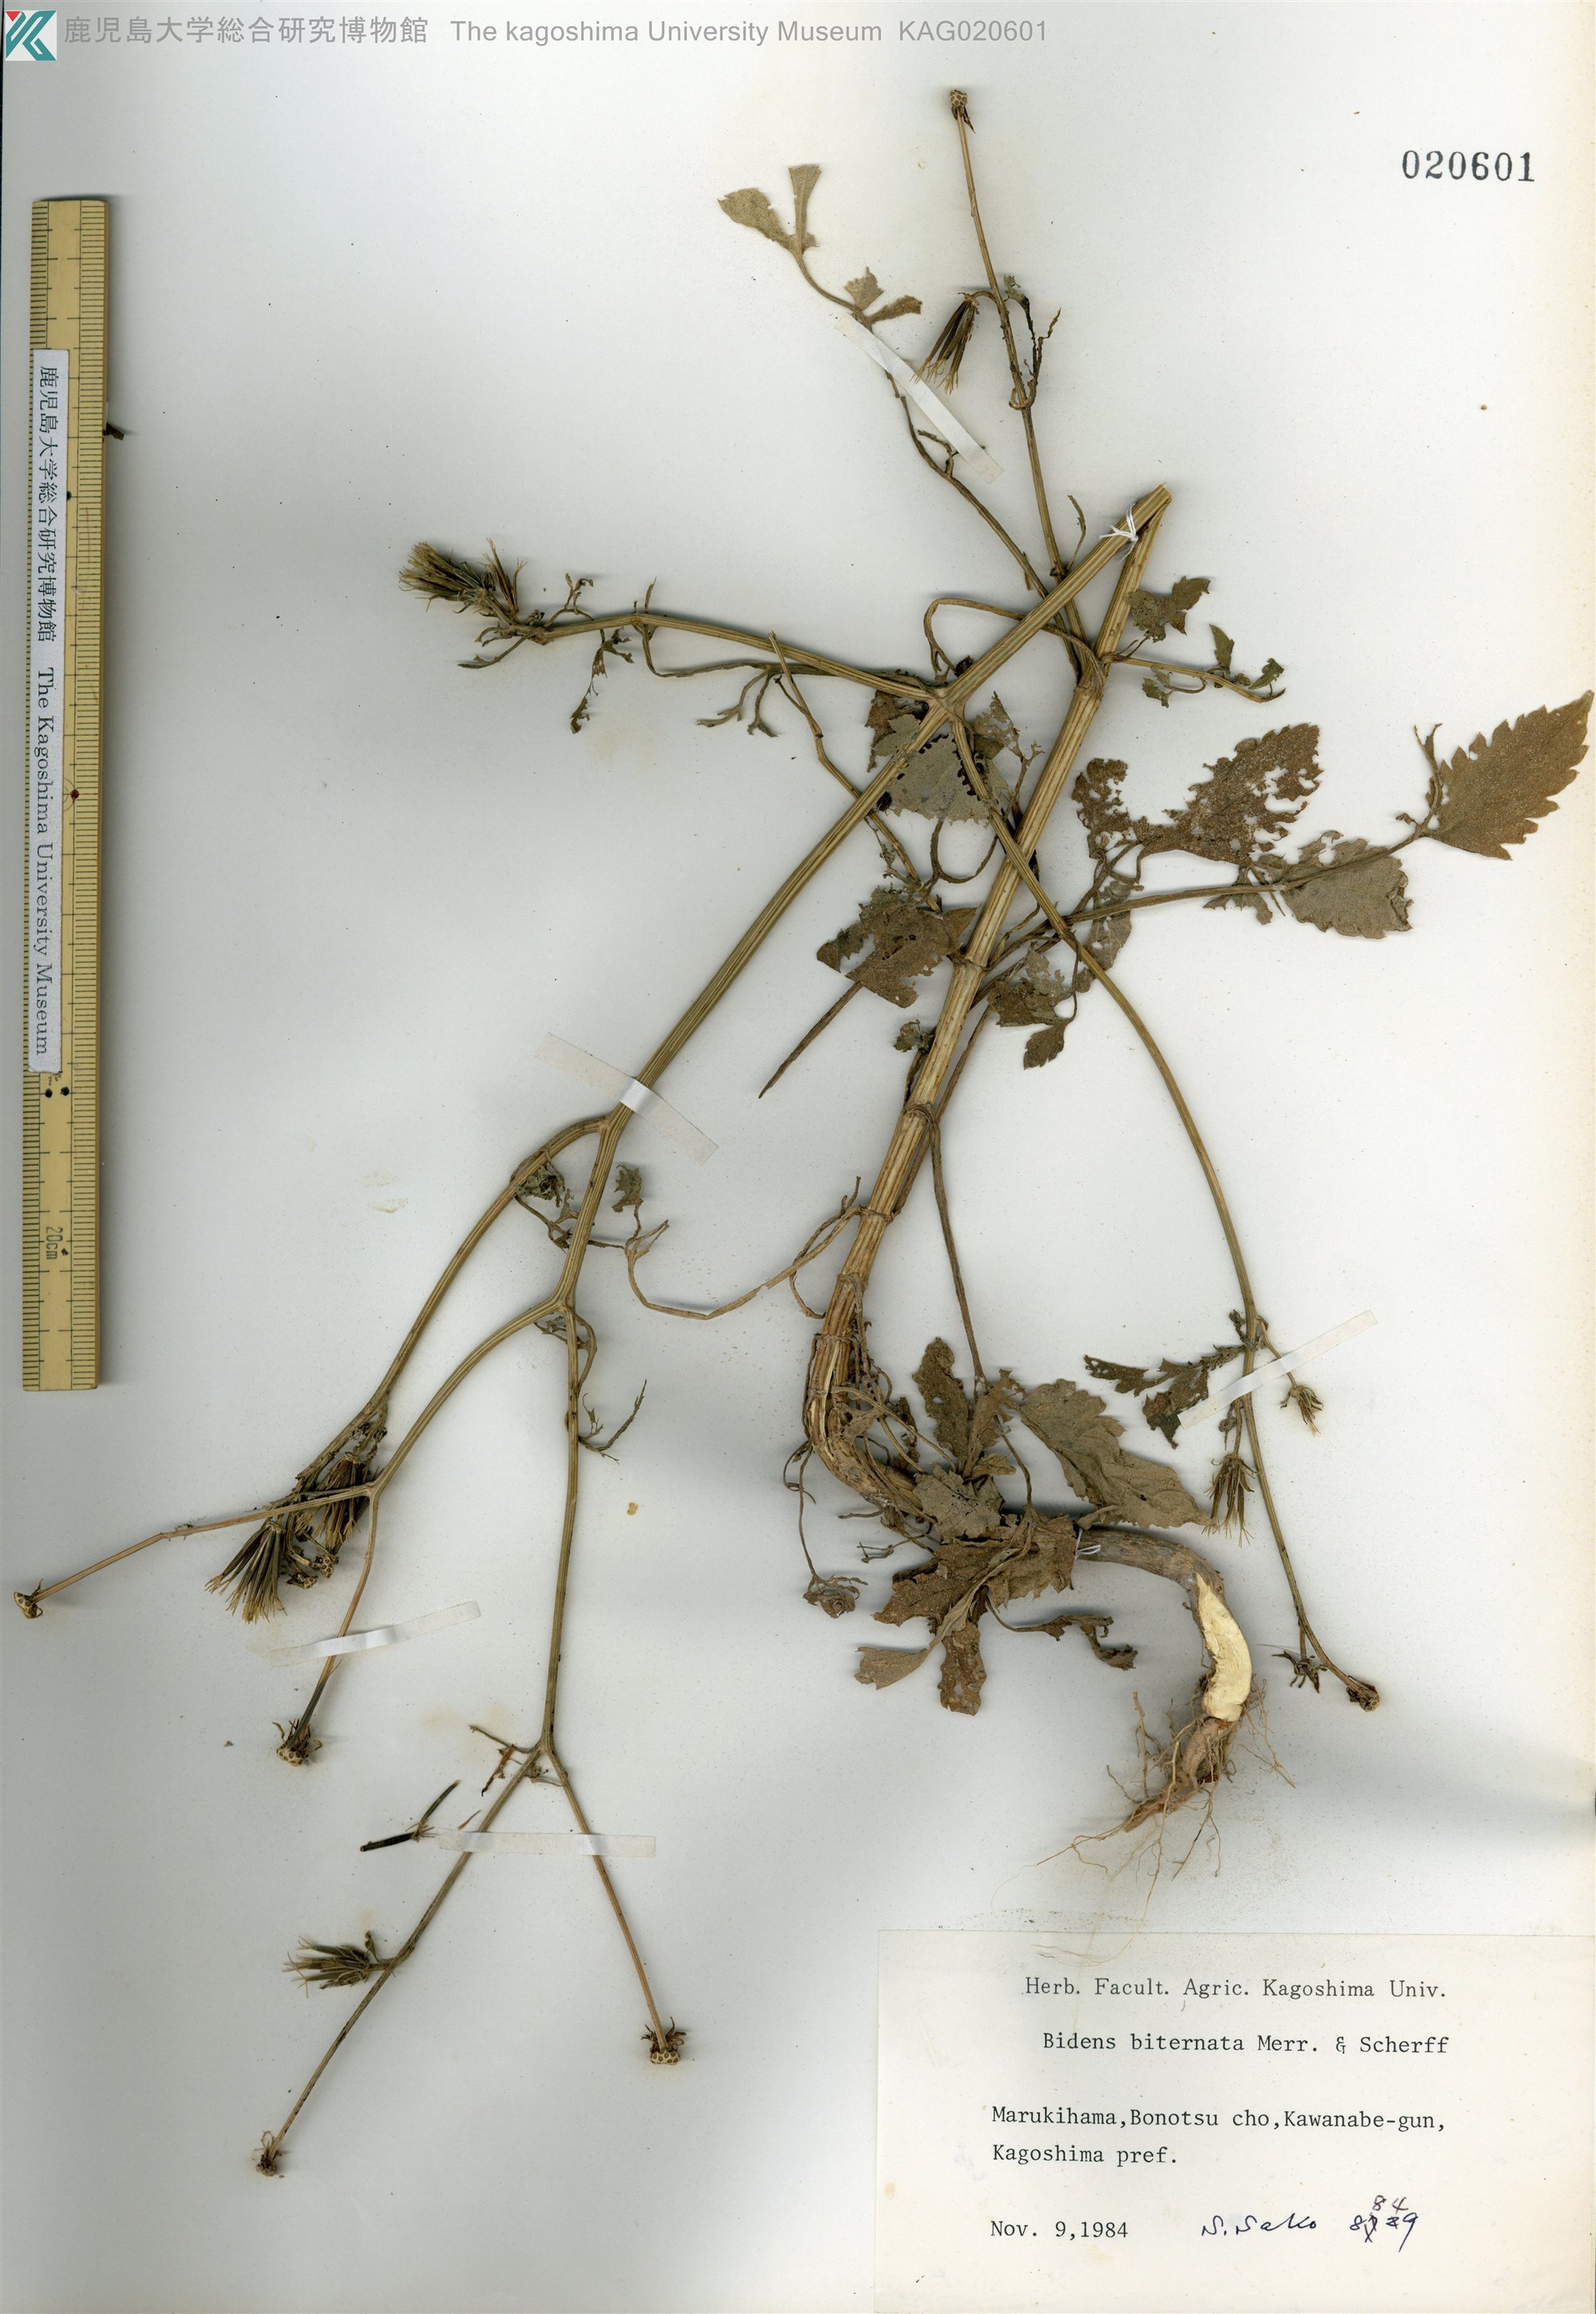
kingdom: Plantae
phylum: Tracheophyta
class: Magnoliopsida
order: Asterales
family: Asteraceae
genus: Bidens
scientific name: Bidens biternata
